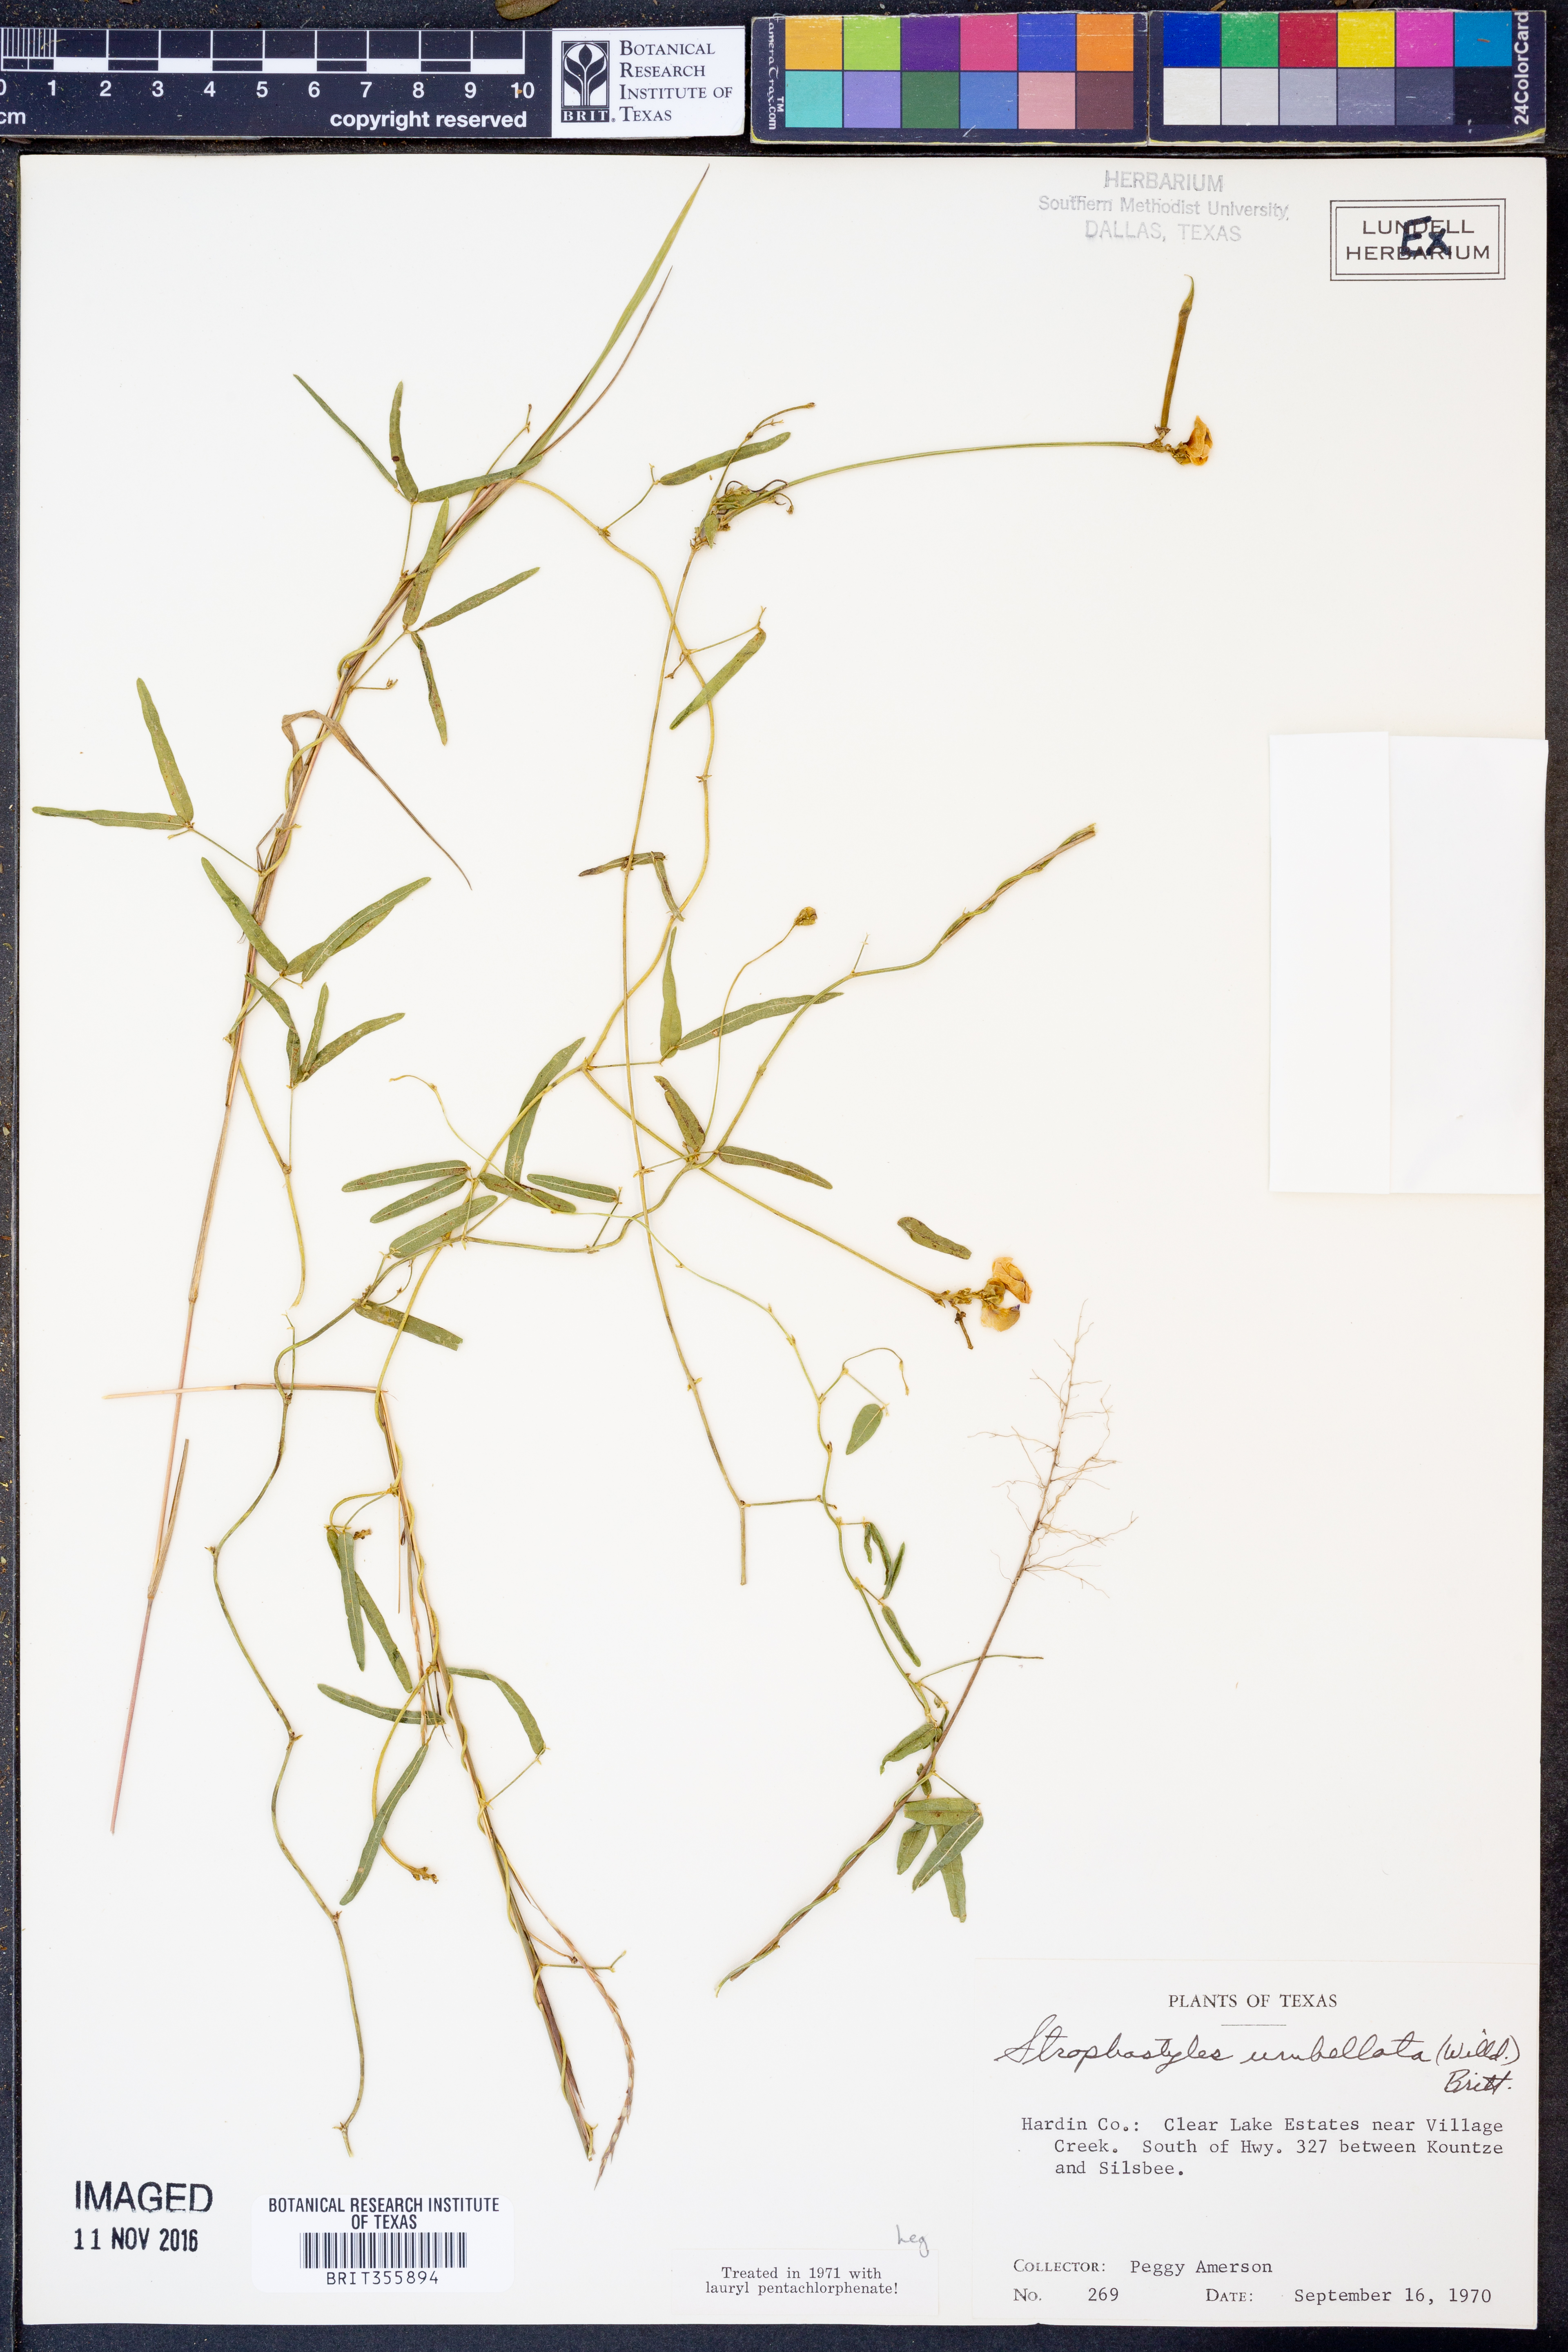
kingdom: Plantae
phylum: Tracheophyta
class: Magnoliopsida
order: Fabales
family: Fabaceae
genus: Strophostyles
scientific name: Strophostyles umbellata
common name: Perennial wild bean
